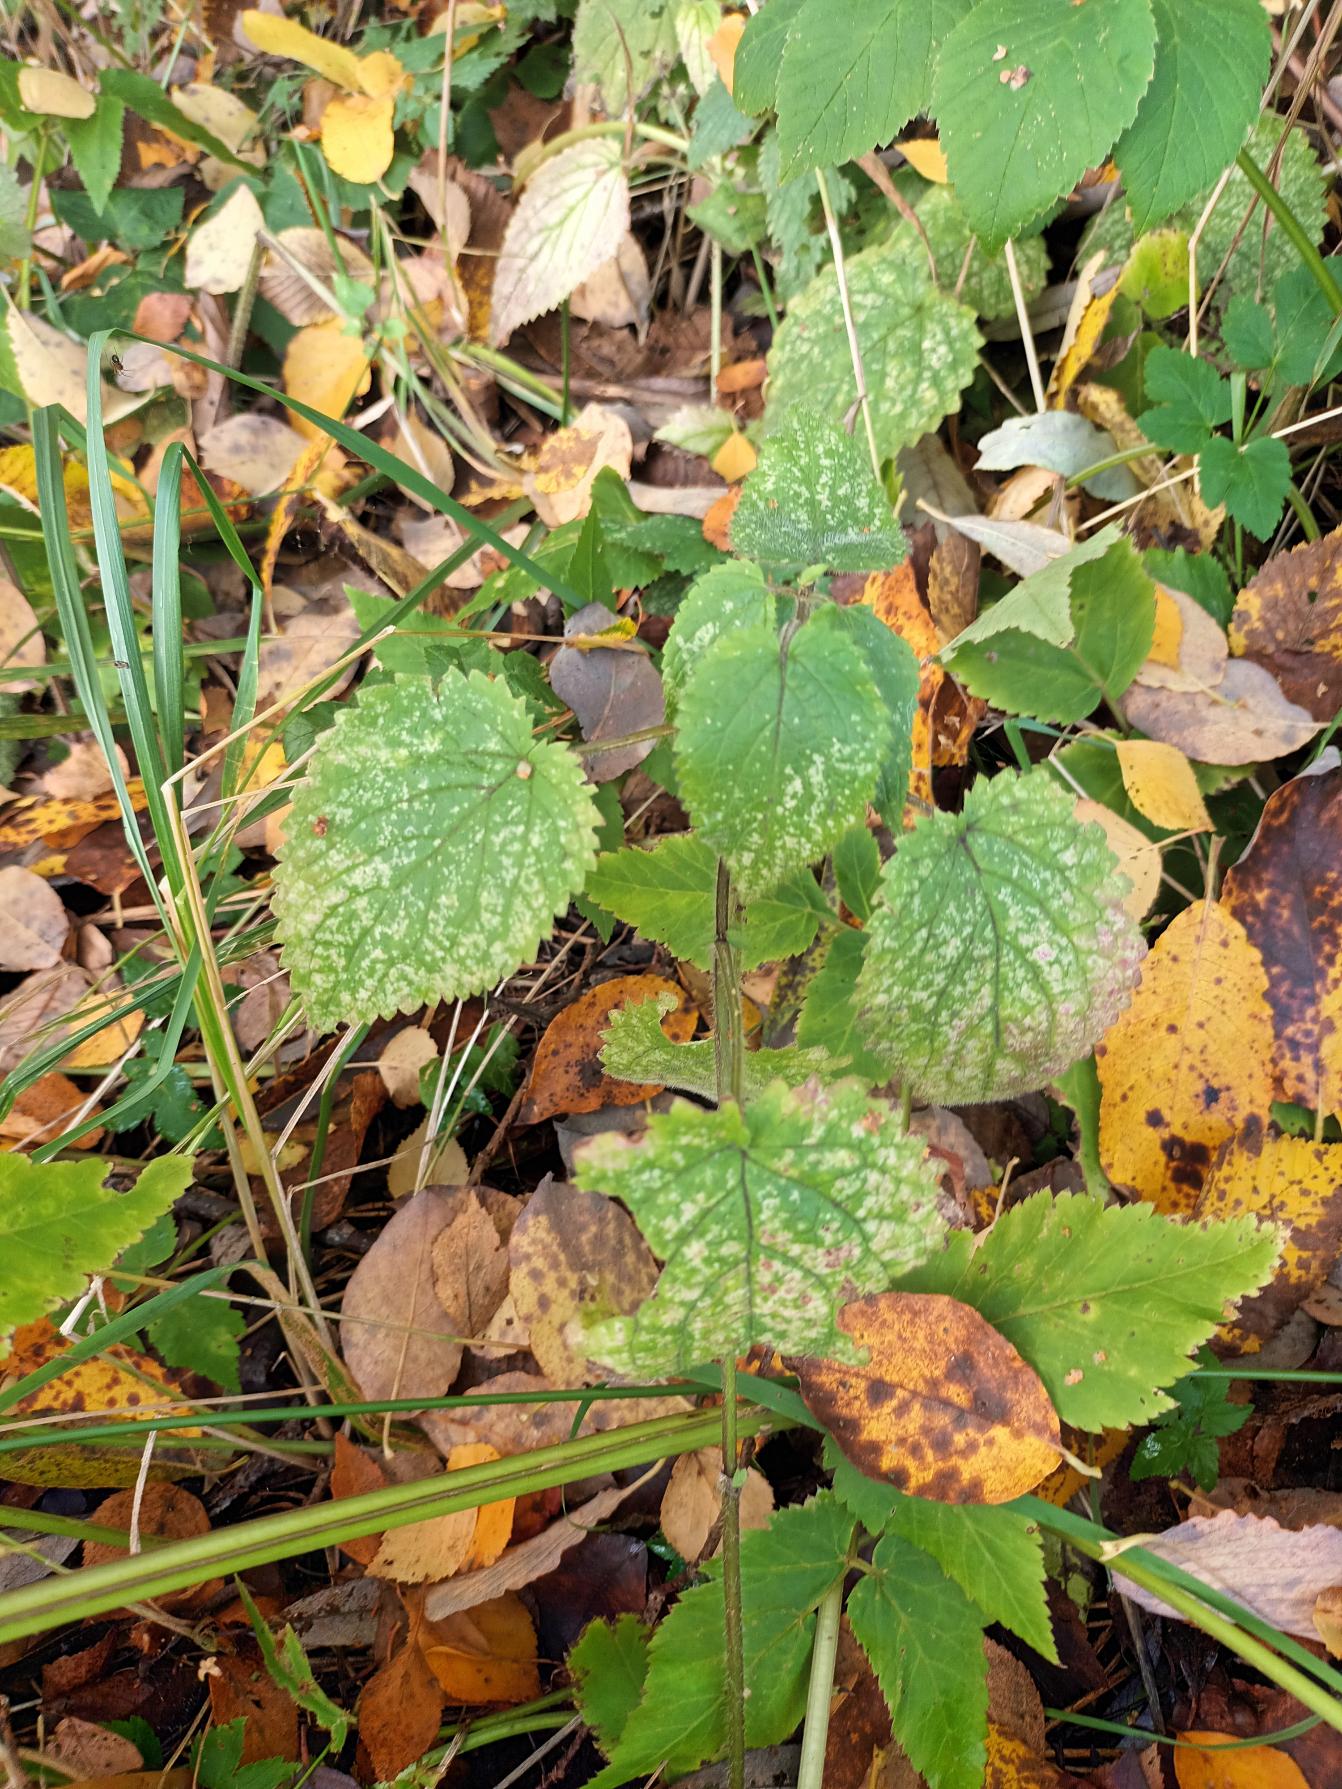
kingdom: Plantae
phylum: Tracheophyta
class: Magnoliopsida
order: Lamiales
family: Lamiaceae
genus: Stachys
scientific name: Stachys sylvatica
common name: Skov-galtetand
